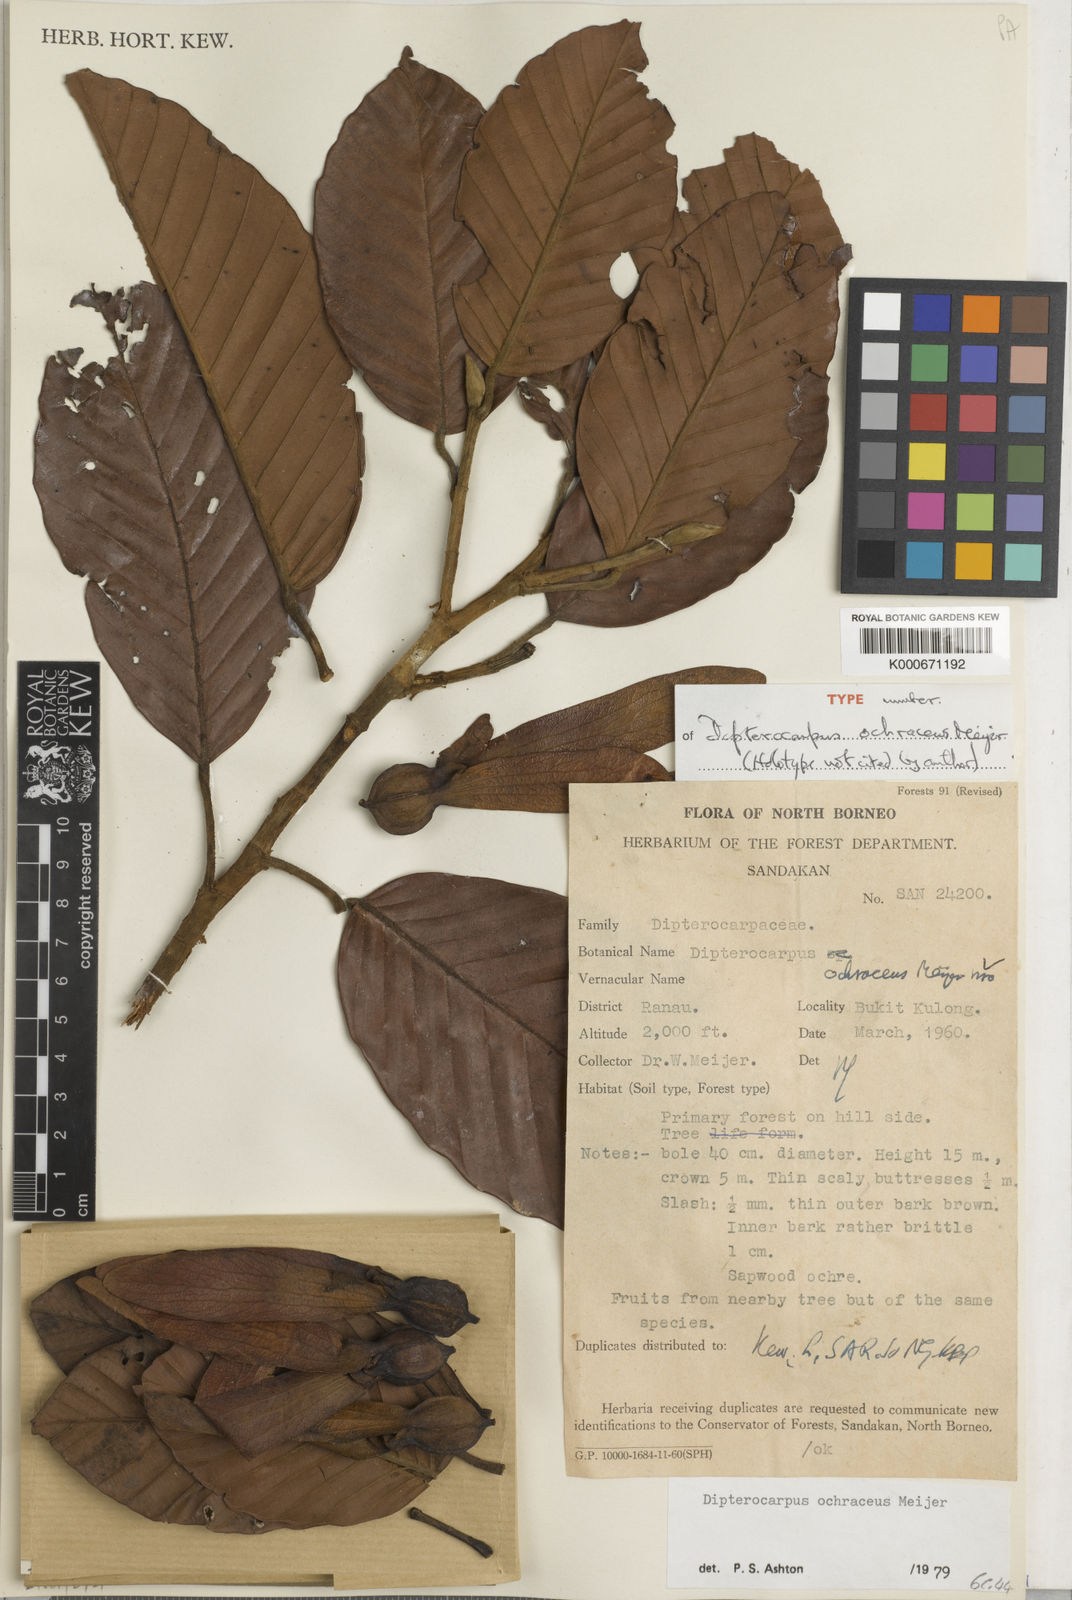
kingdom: Plantae
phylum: Tracheophyta
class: Magnoliopsida
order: Malvales
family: Dipterocarpaceae
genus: Dipterocarpus
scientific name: Dipterocarpus ochraceus
